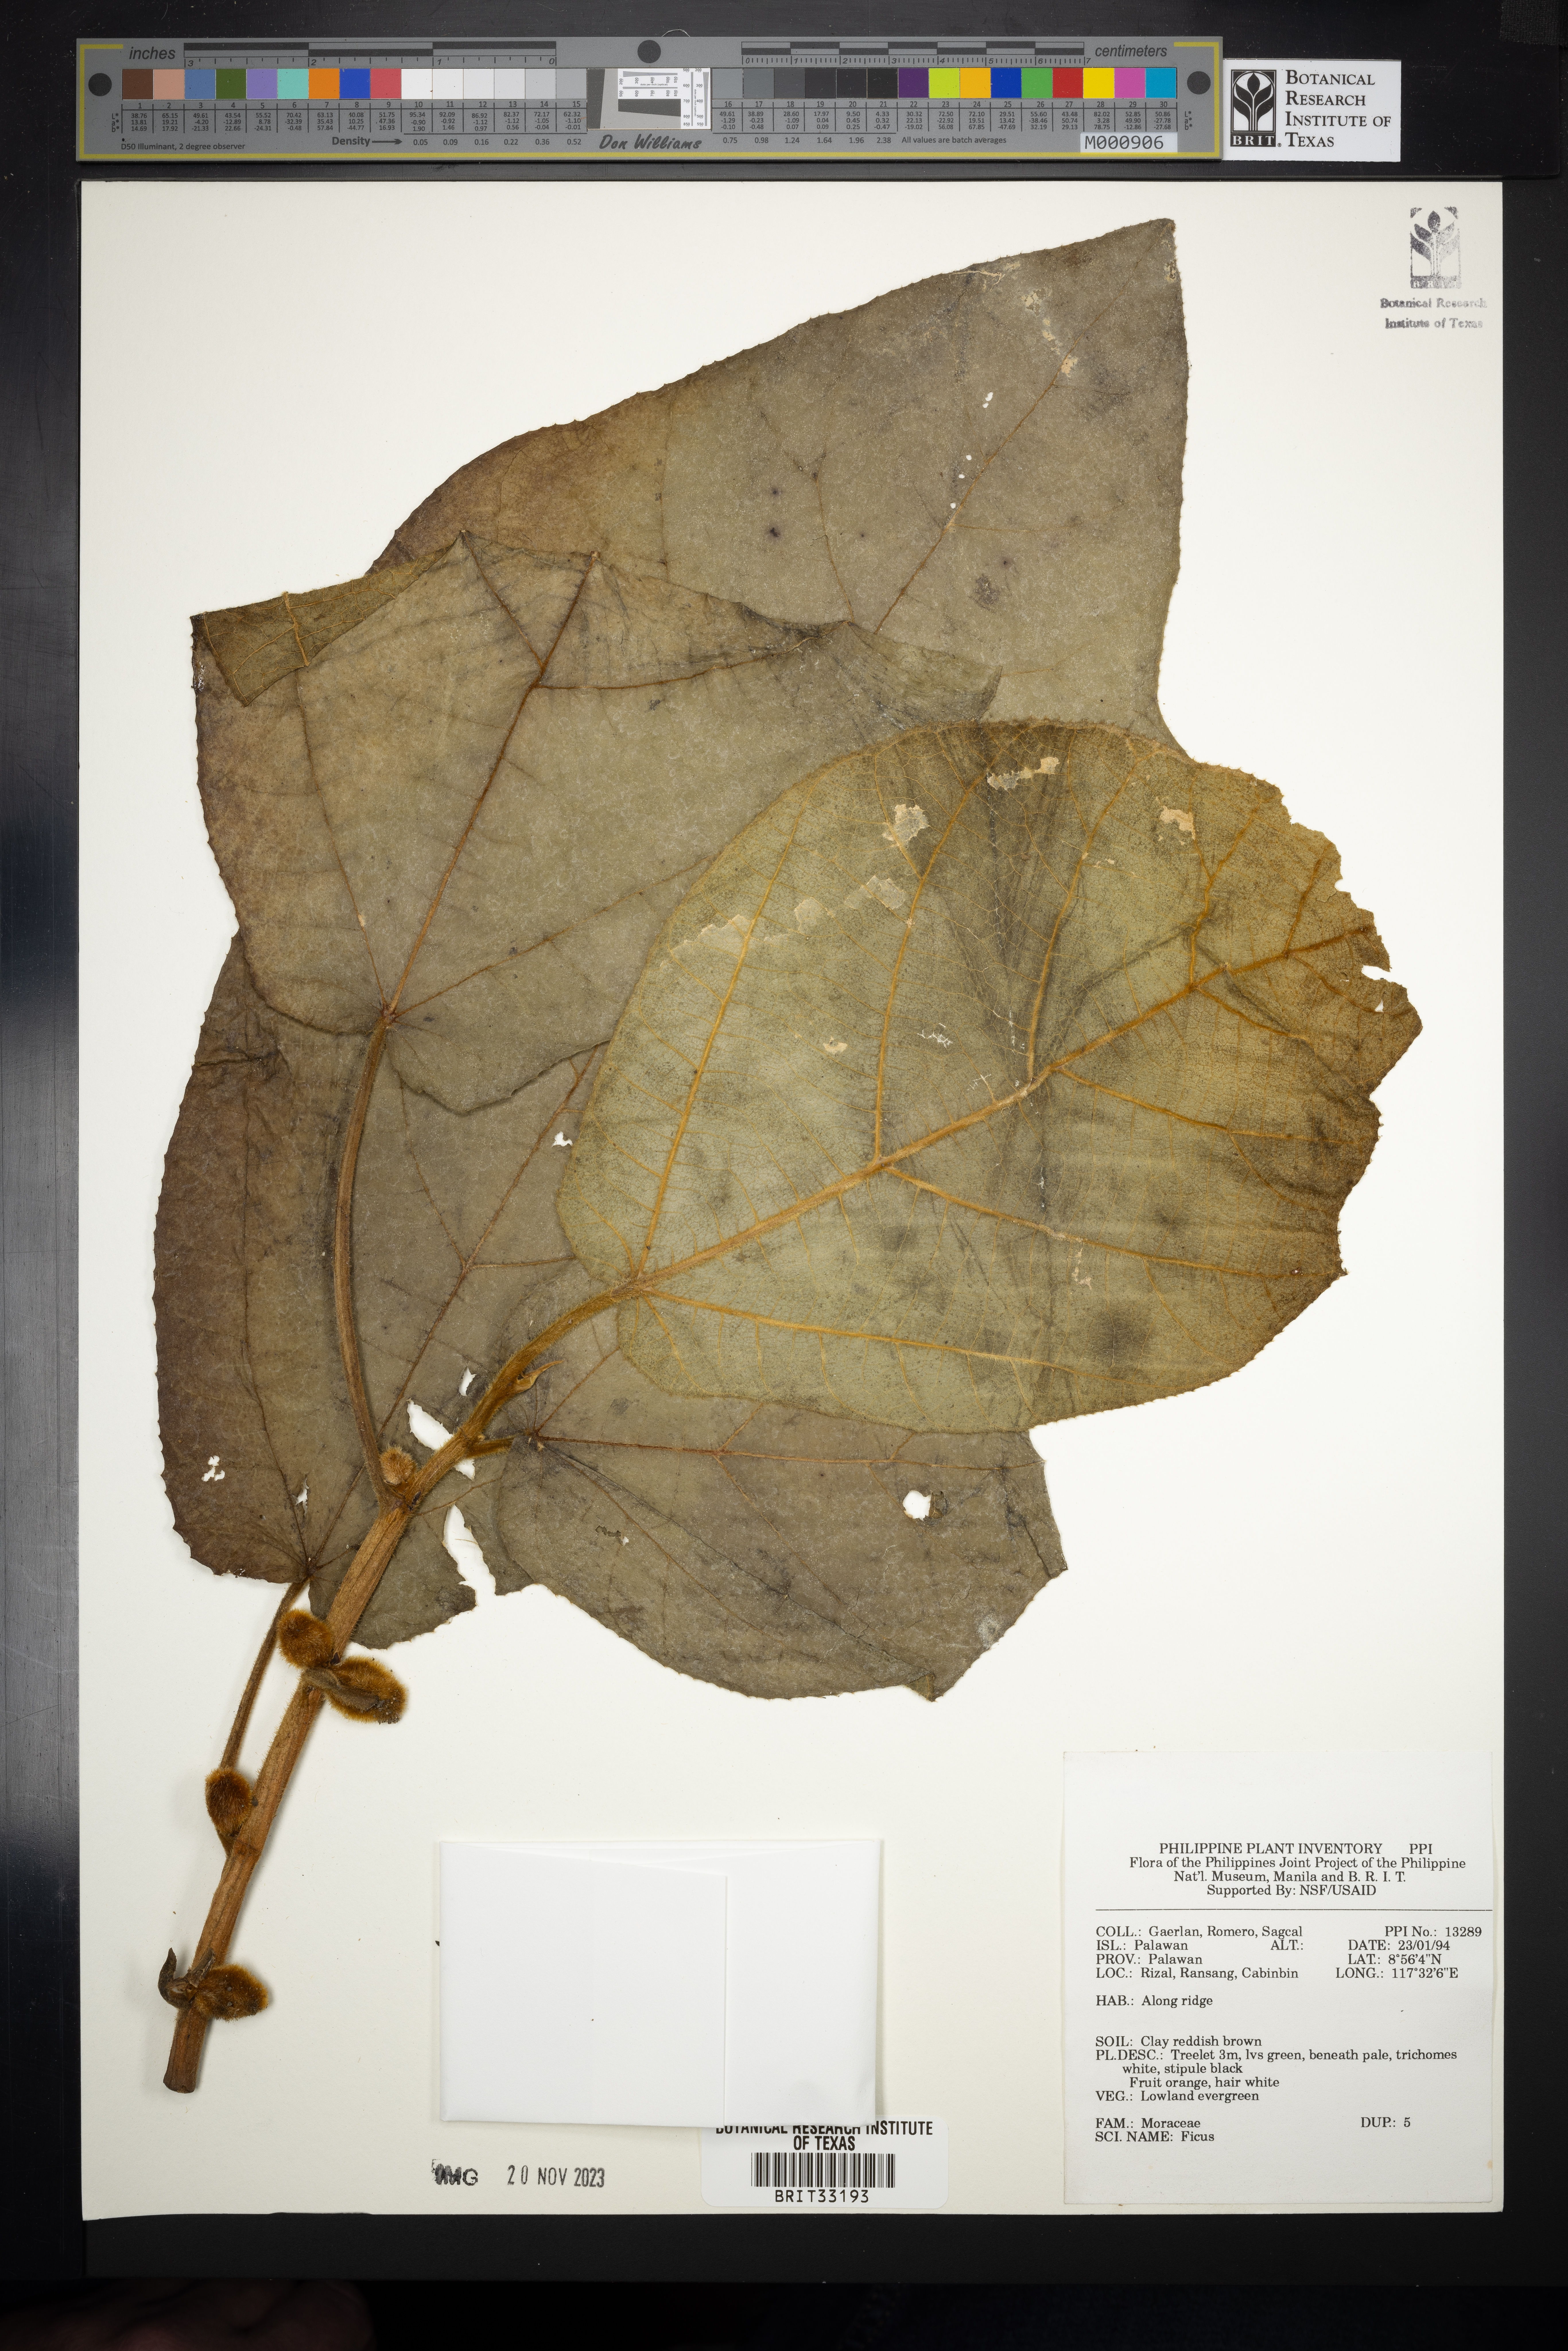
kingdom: Plantae
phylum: Tracheophyta
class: Magnoliopsida
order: Rosales
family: Moraceae
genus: Ficus
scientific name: Ficus
